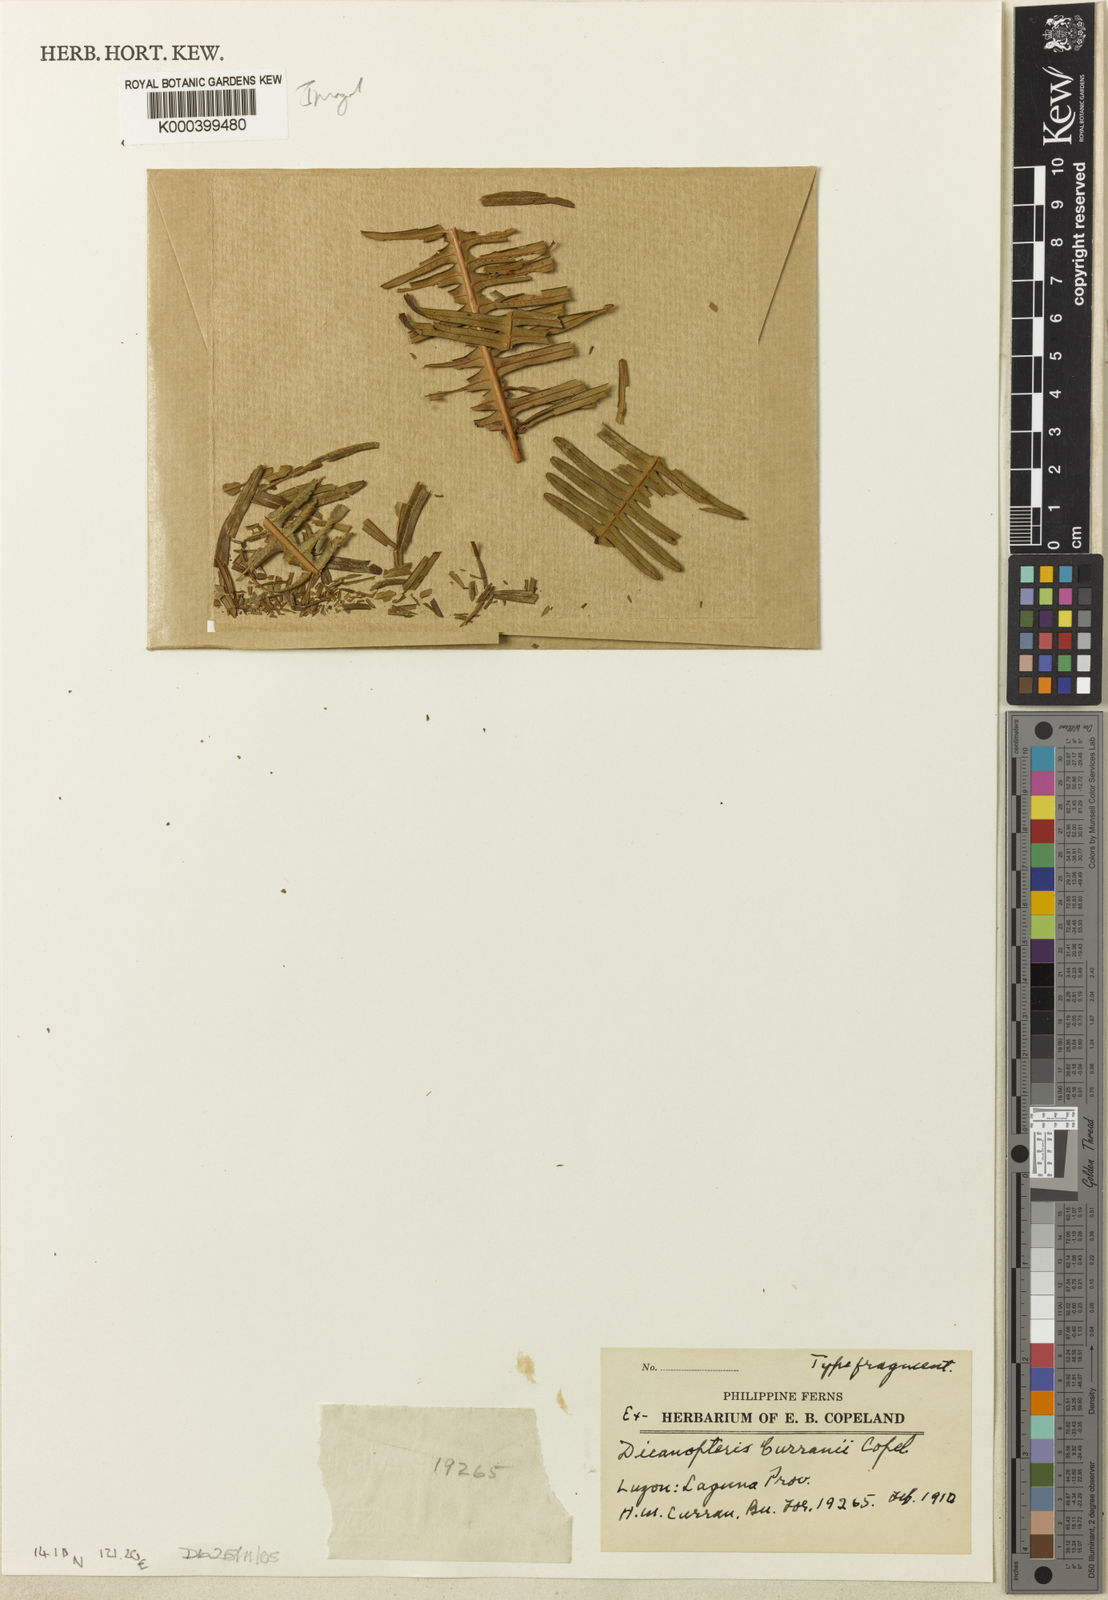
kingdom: Plantae
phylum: Tracheophyta
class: Polypodiopsida
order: Gleicheniales
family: Gleicheniaceae
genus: Dicranopteris
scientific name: Dicranopteris curranii
